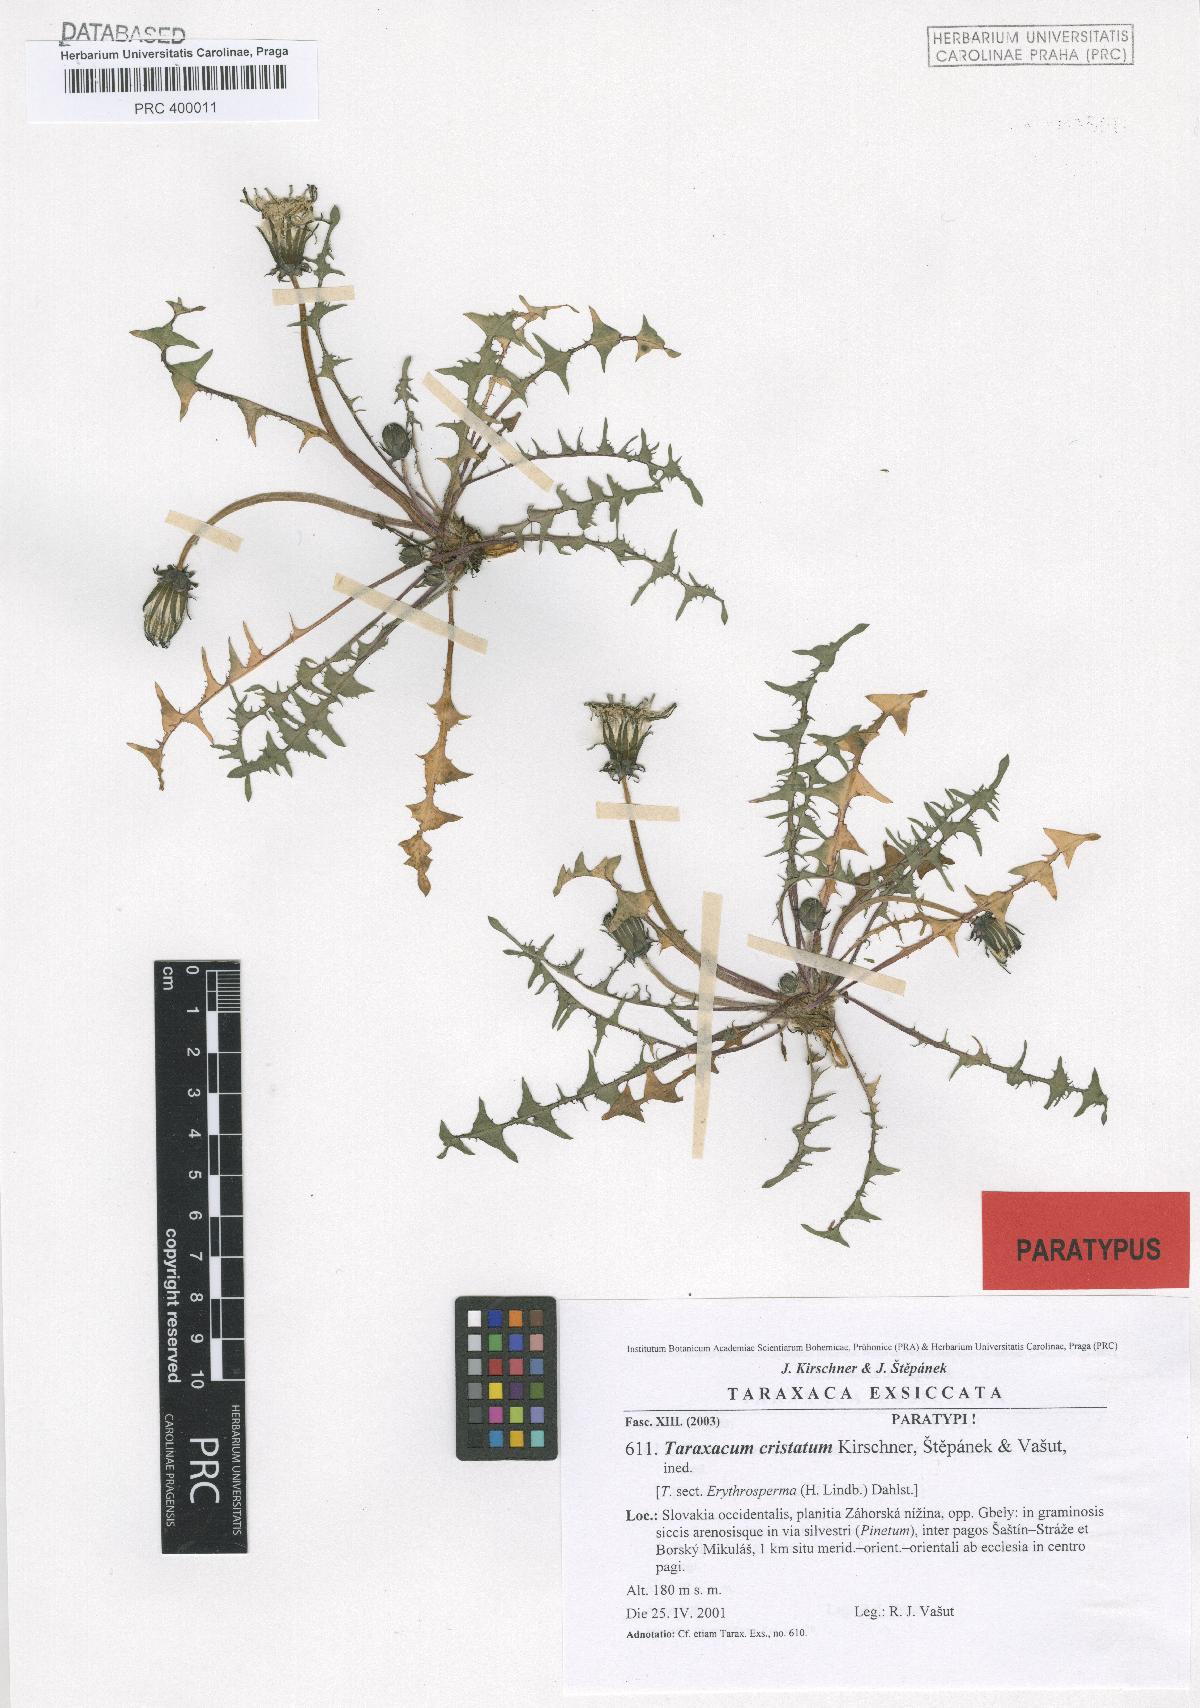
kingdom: Plantae
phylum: Tracheophyta
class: Magnoliopsida
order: Asterales
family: Asteraceae
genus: Taraxacum
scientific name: Taraxacum cristatum
